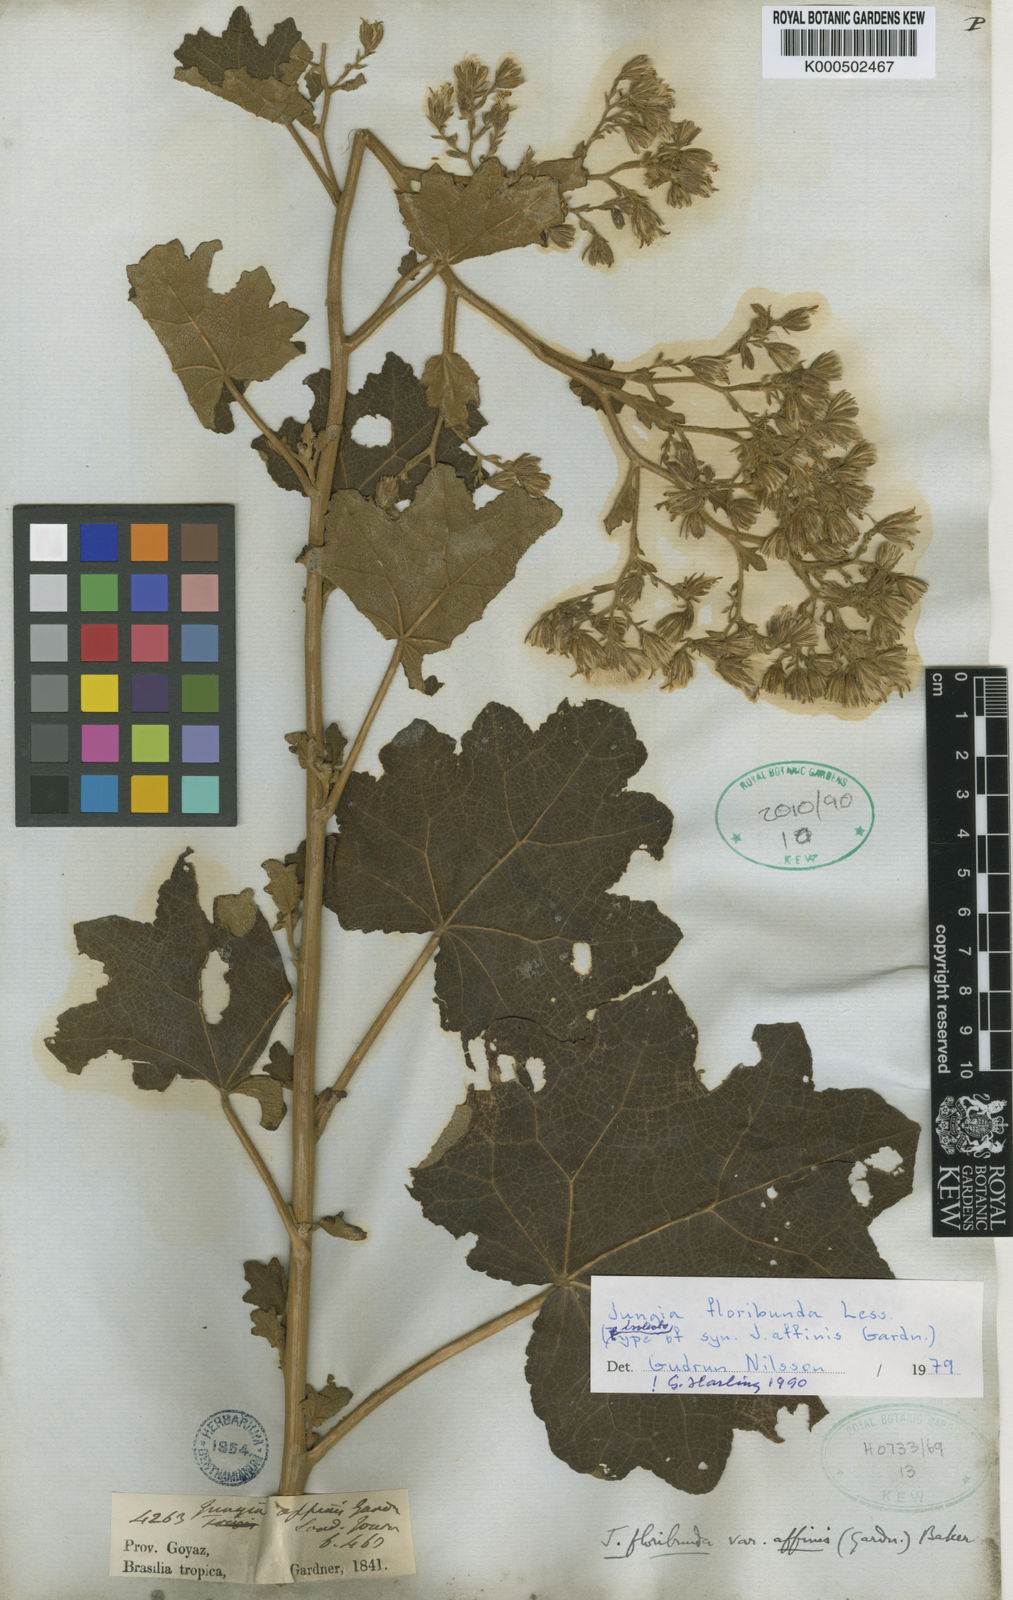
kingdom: Plantae
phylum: Tracheophyta
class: Magnoliopsida
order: Asterales
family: Asteraceae
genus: Jungia
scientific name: Jungia floribunda
